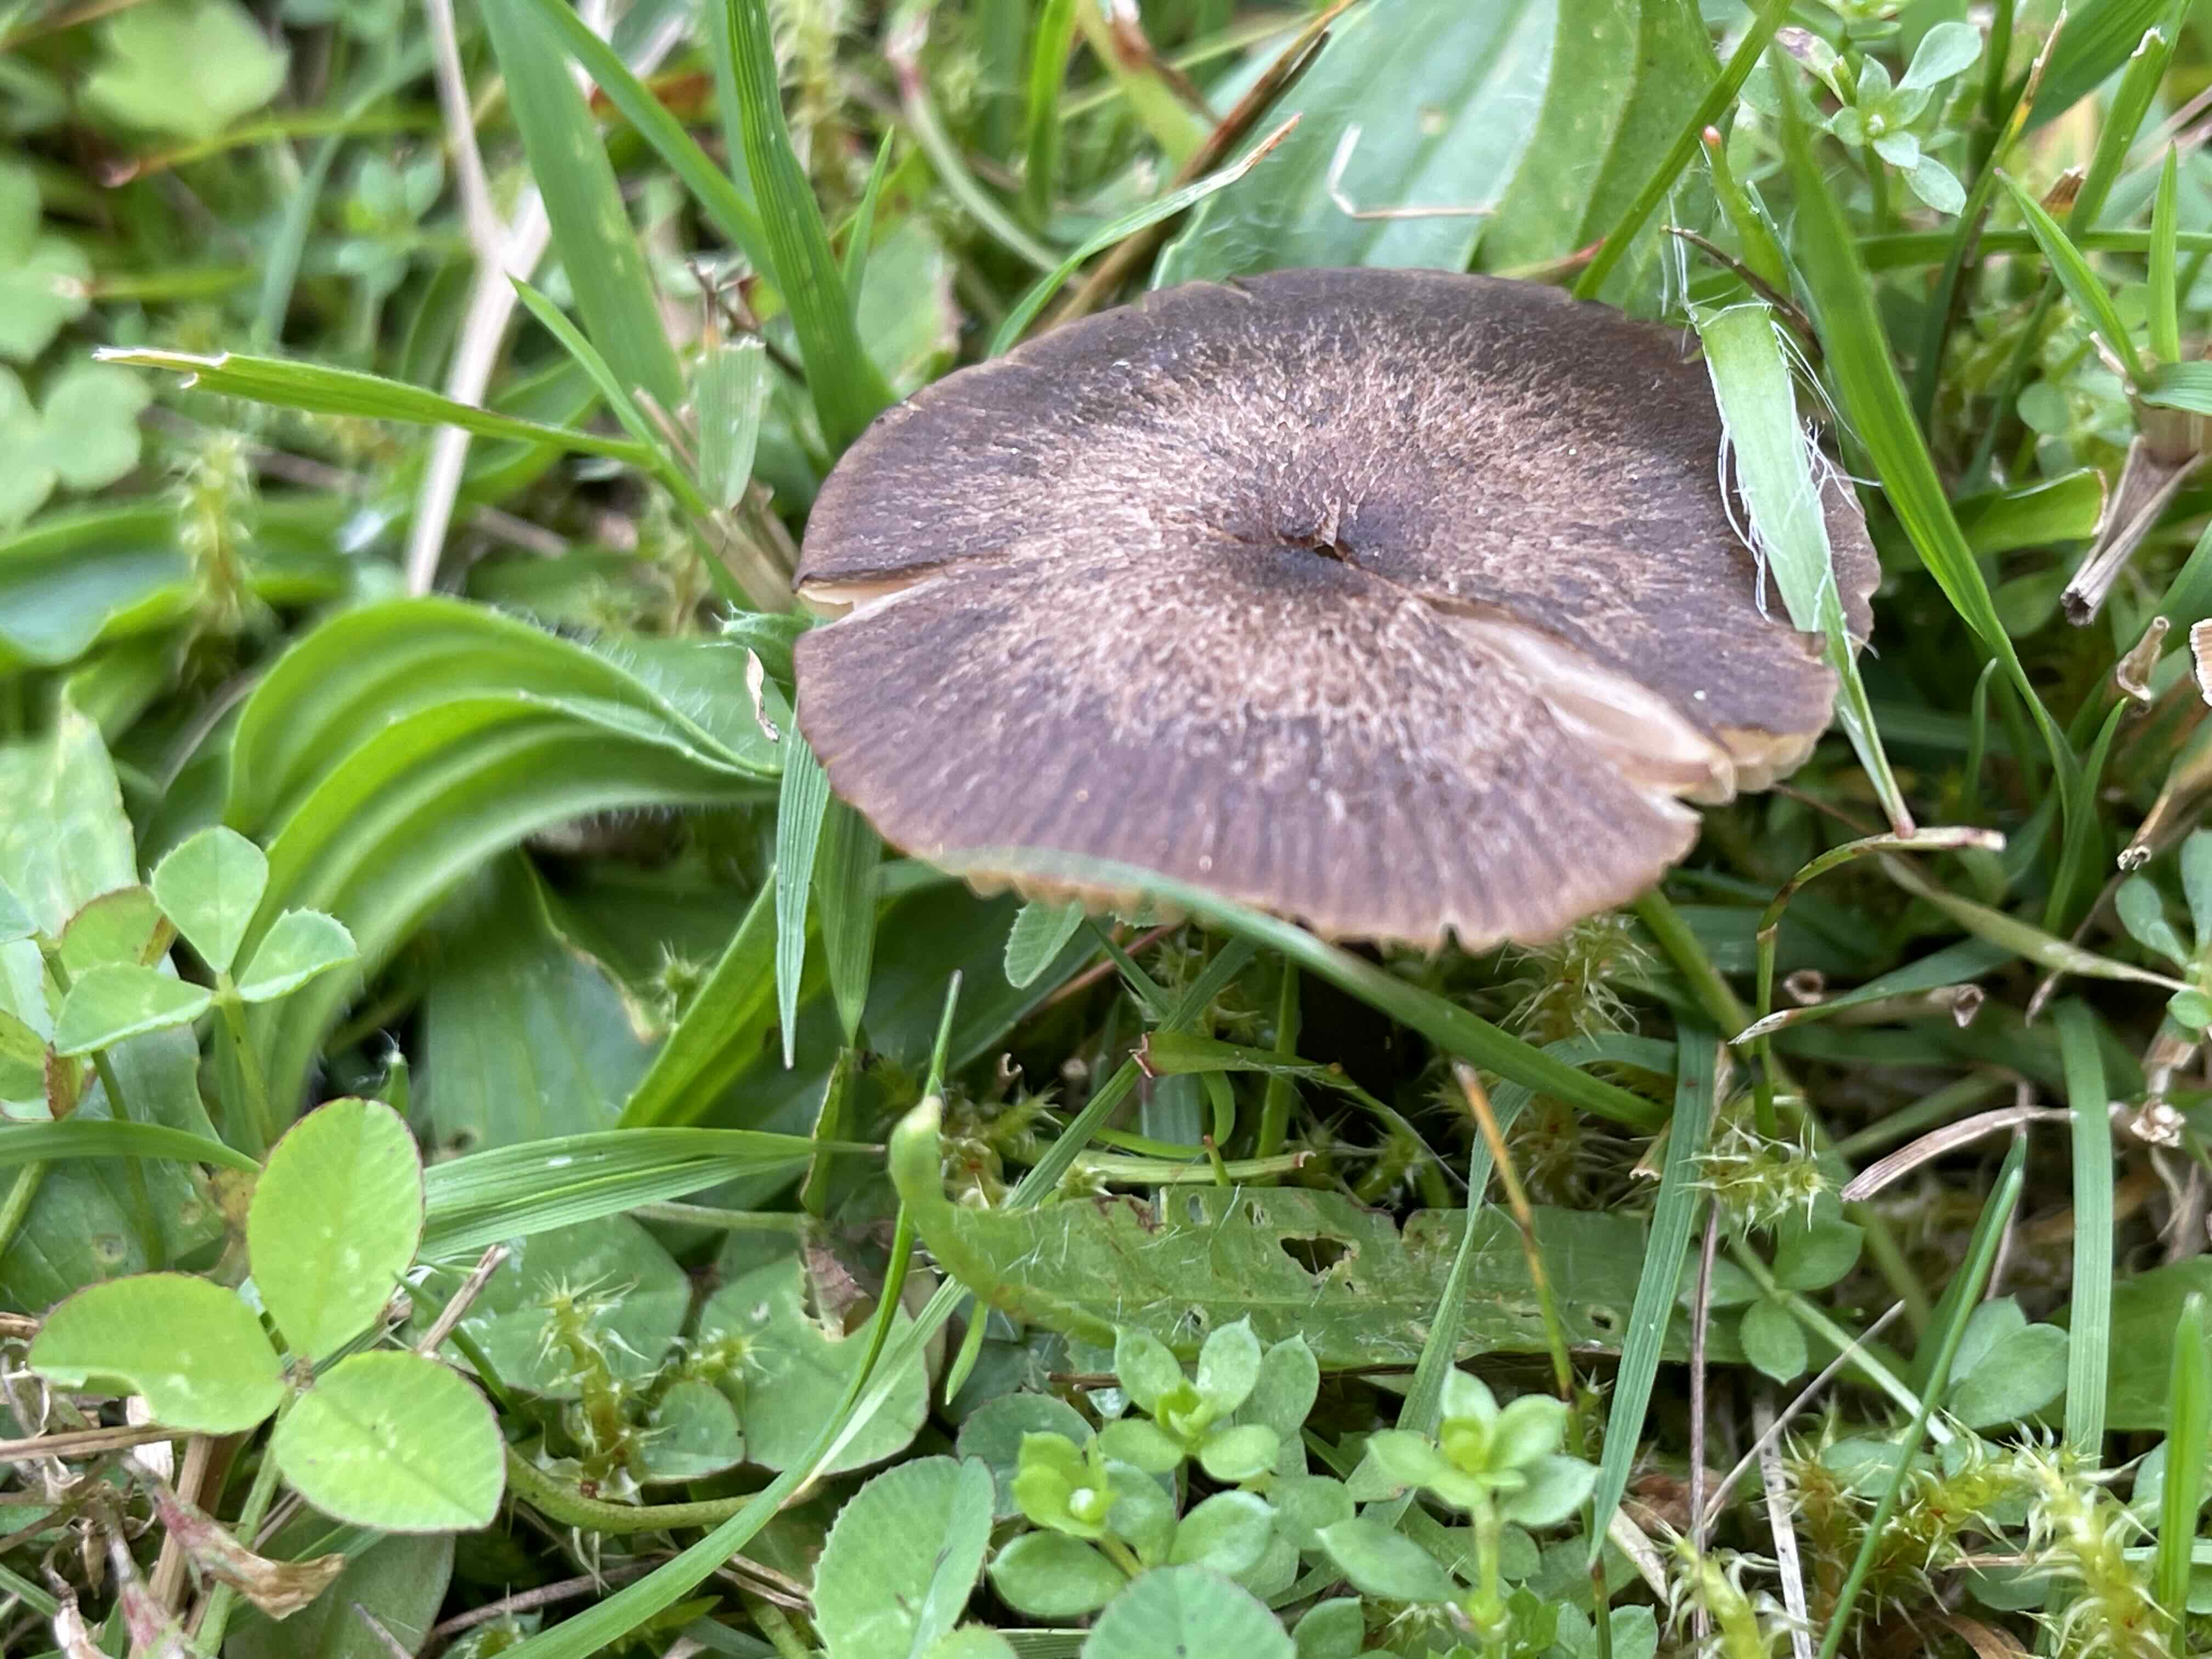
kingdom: Fungi
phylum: Basidiomycota
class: Agaricomycetes
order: Agaricales
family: Entolomataceae
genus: Entoloma
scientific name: Entoloma
